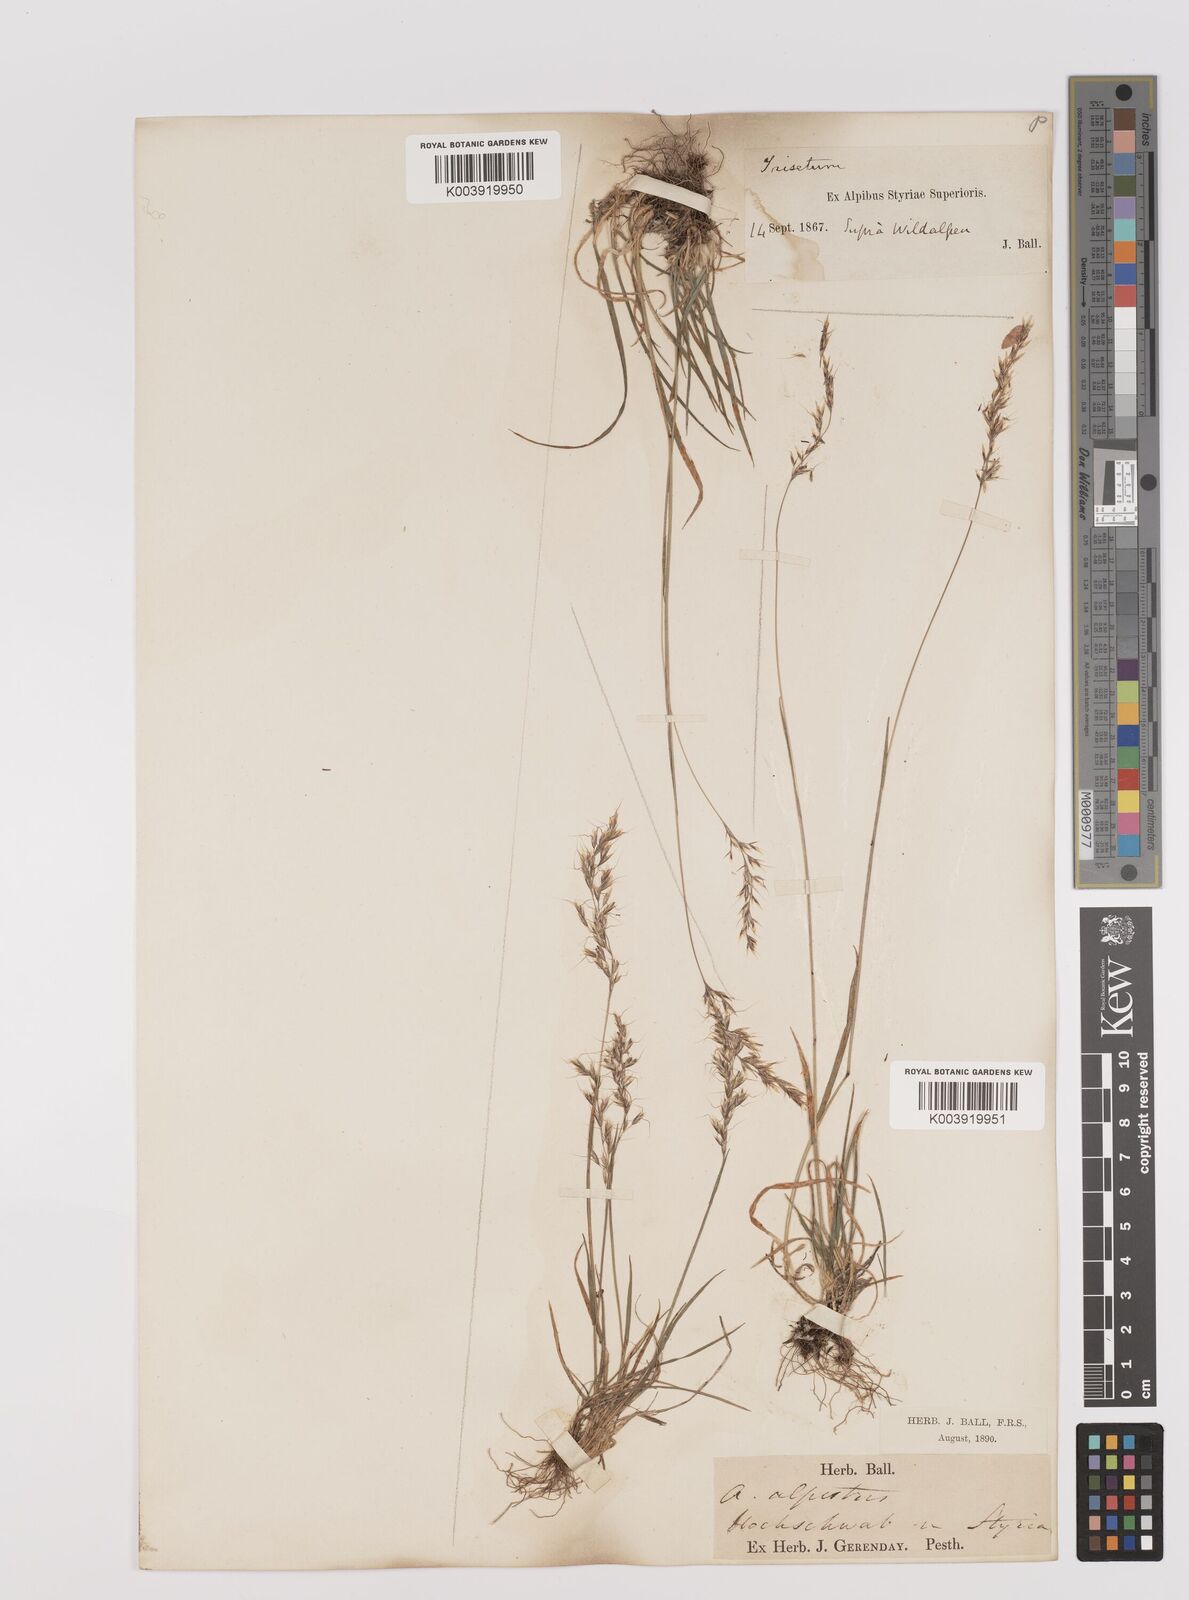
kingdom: Plantae
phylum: Tracheophyta
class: Liliopsida
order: Poales
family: Poaceae
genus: Trisetum
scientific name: Trisetum alpestre
